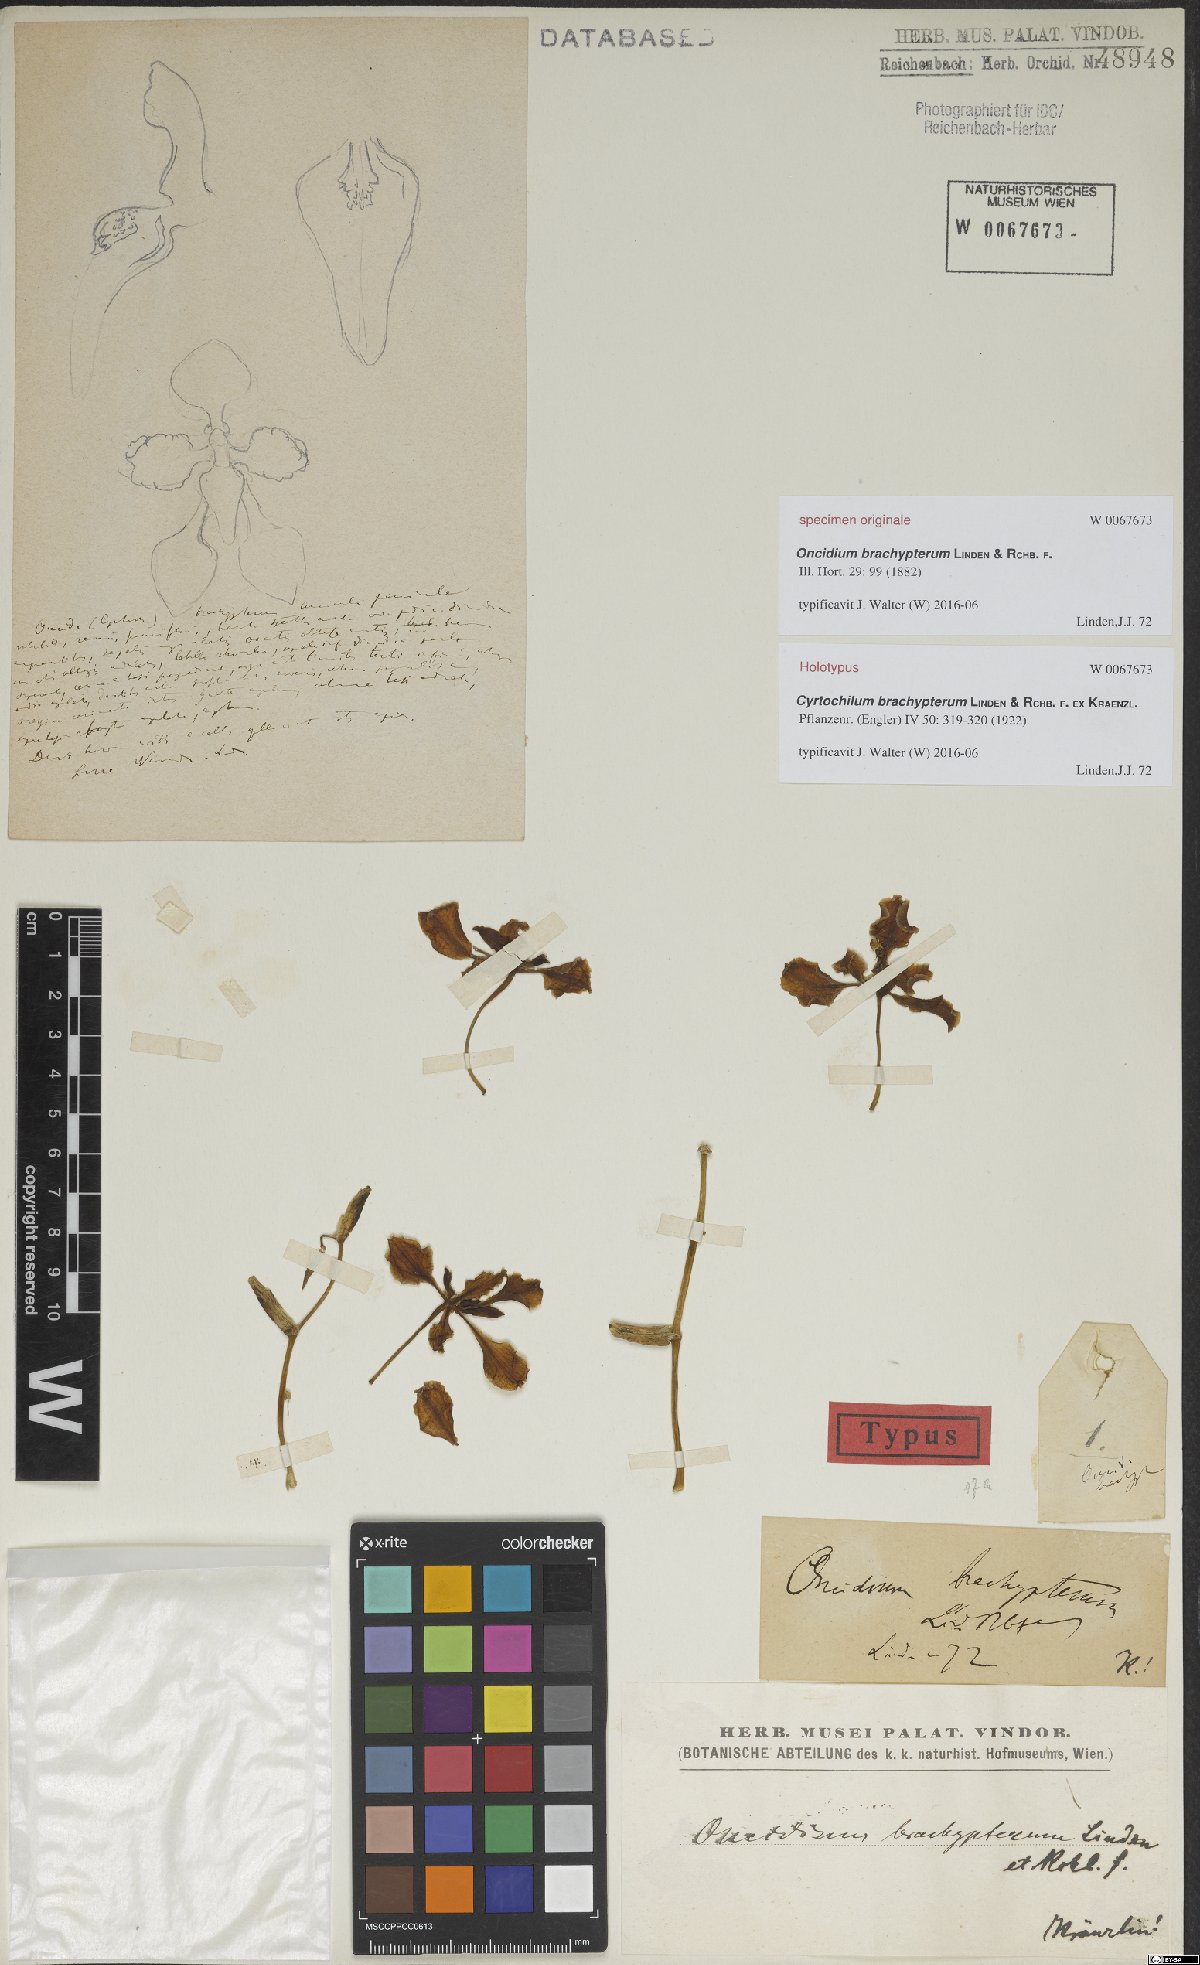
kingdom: Plantae
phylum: Tracheophyta
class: Liliopsida
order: Asparagales
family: Orchidaceae
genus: Cyrtochilum
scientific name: Cyrtochilum brachypterum
